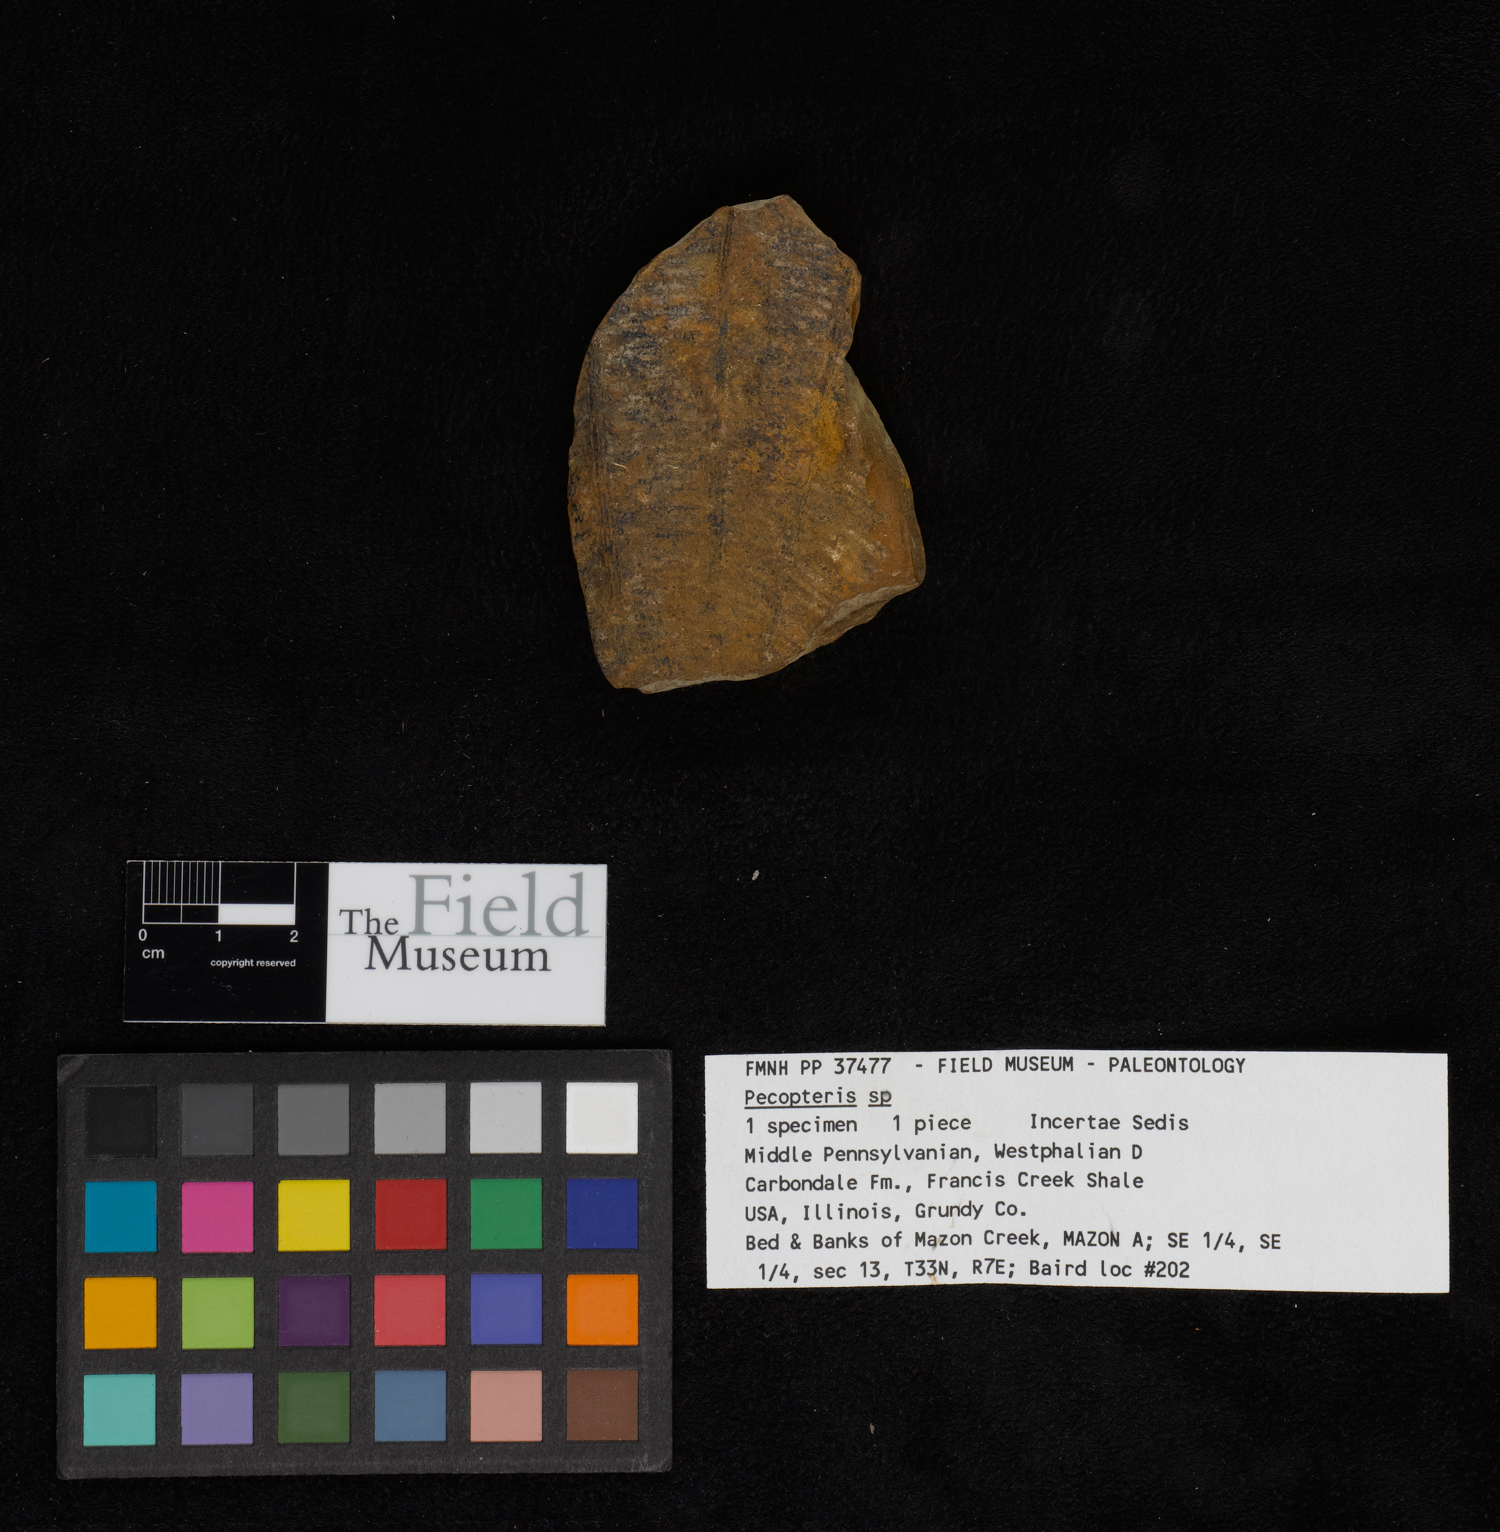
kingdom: Plantae
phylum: Tracheophyta
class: Polypodiopsida
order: Marattiales
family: Asterothecaceae
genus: Pecopteris
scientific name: Pecopteris
